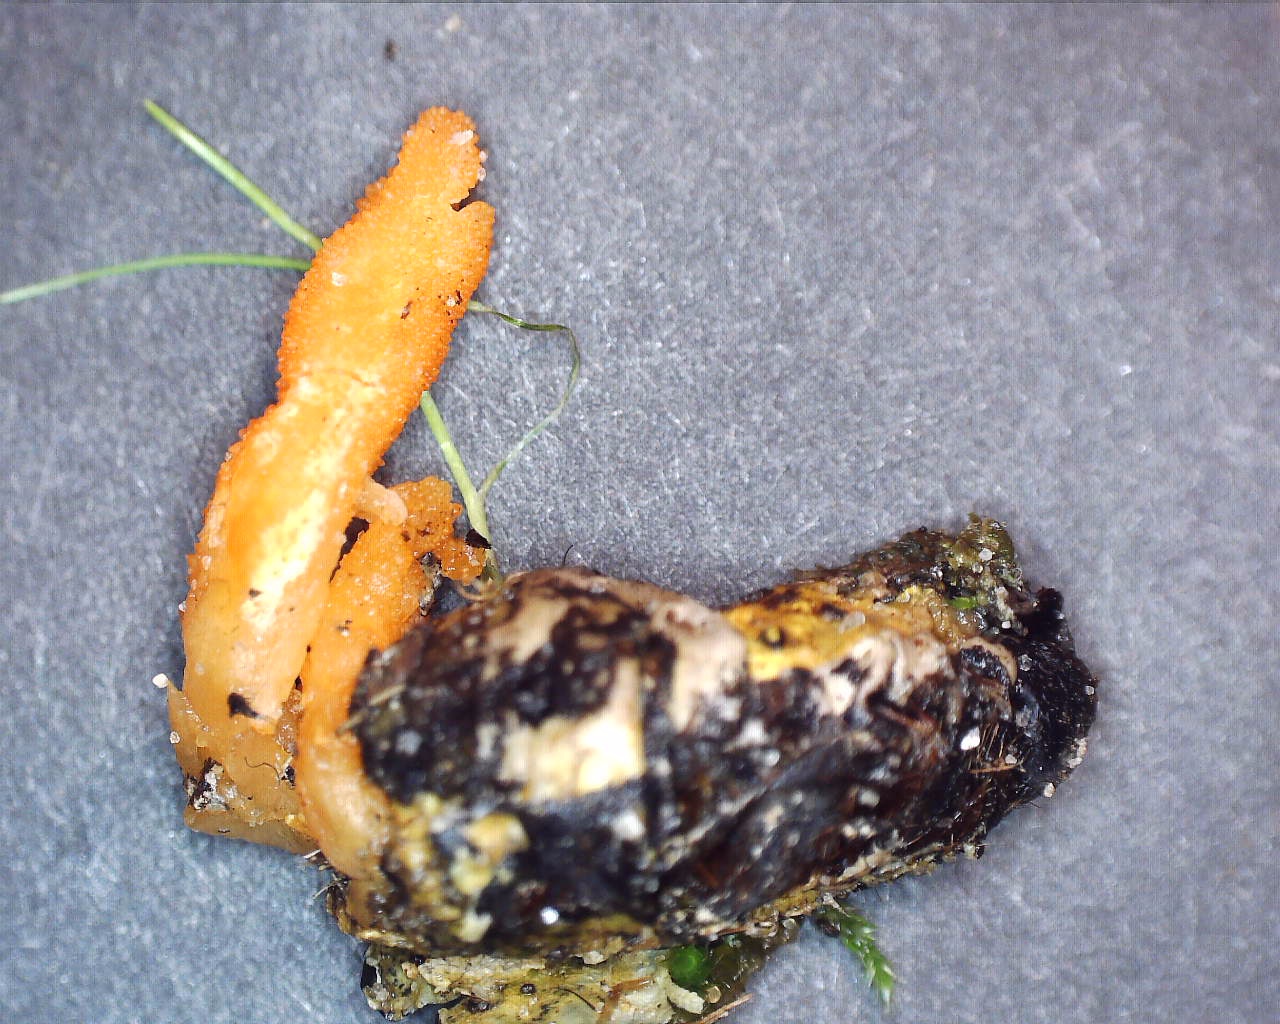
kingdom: Fungi
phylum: Ascomycota
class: Sordariomycetes
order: Hypocreales
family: Cordycipitaceae
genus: Cordyceps
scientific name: Cordyceps militaris
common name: puppe-snyltekølle
